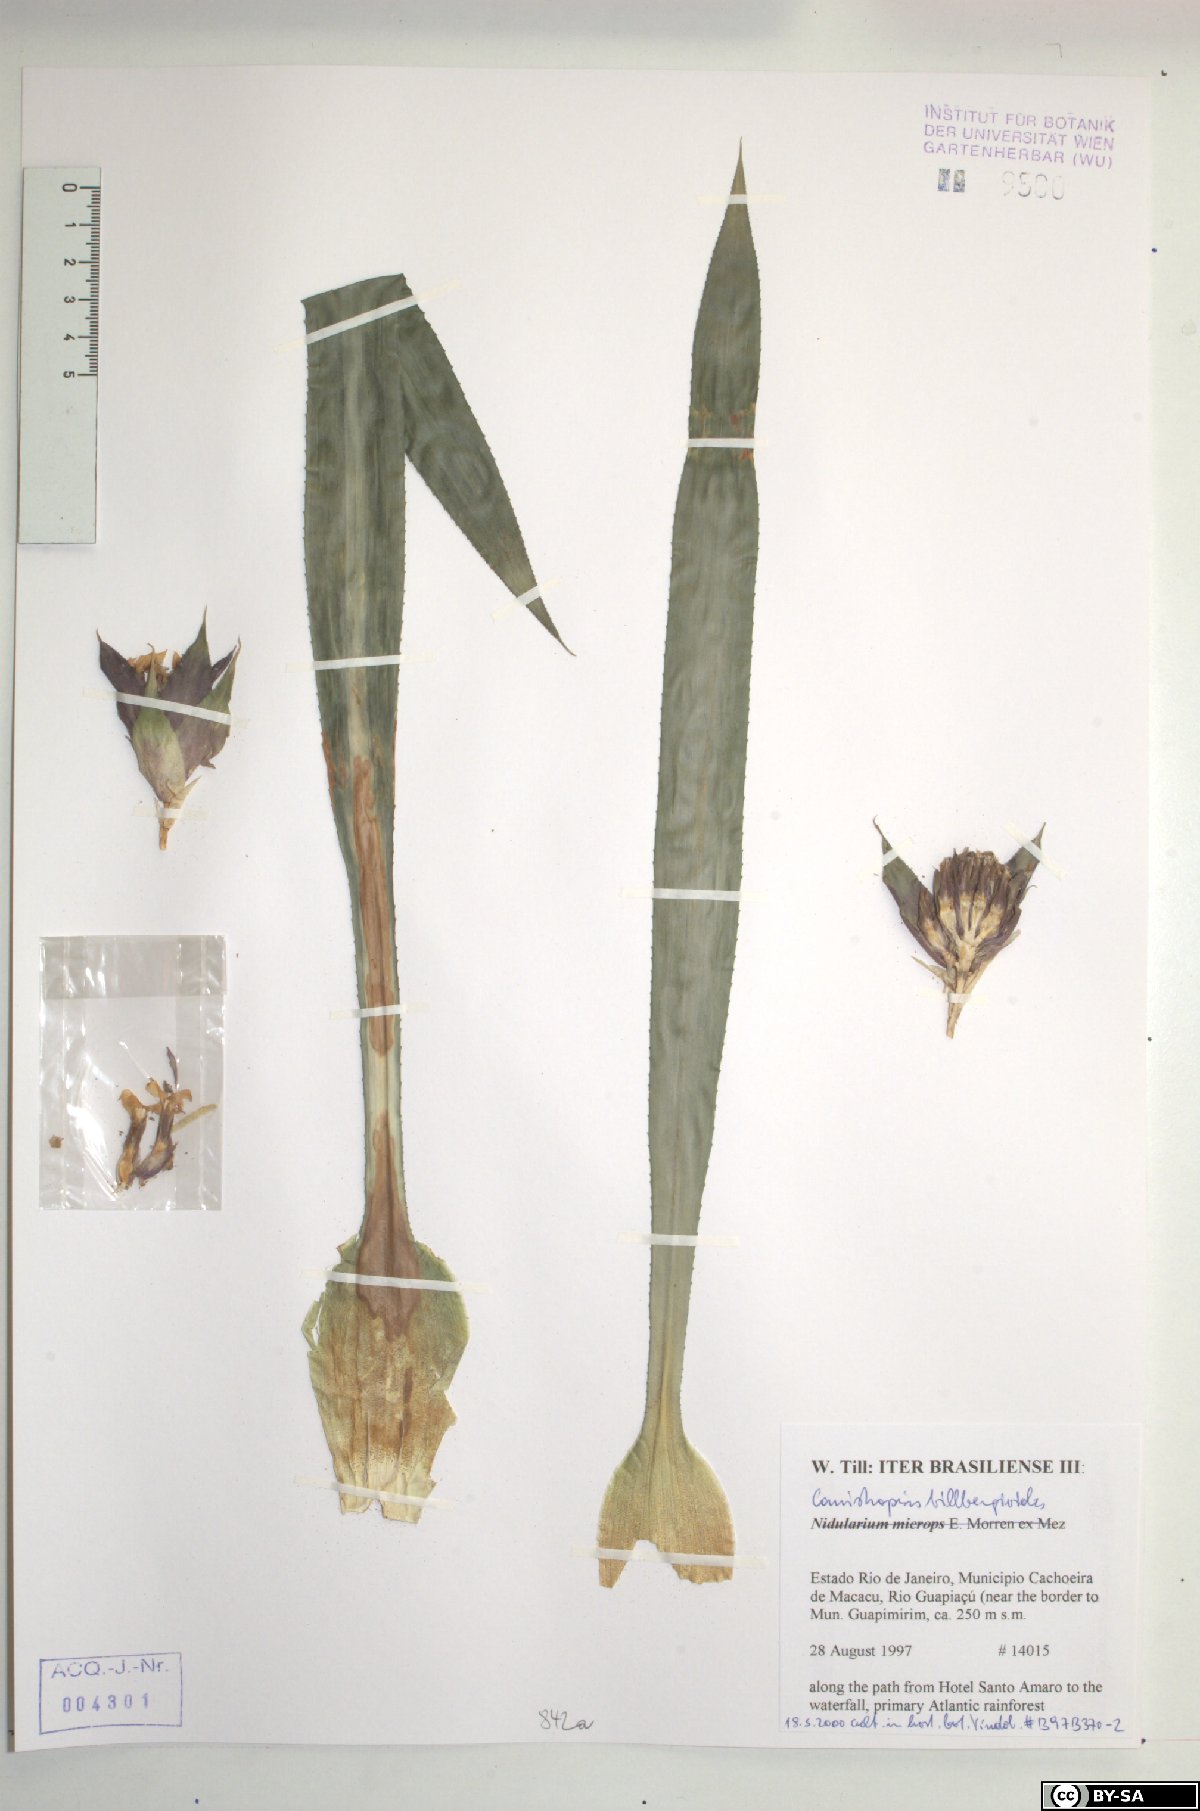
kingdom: Plantae
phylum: Tracheophyta
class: Liliopsida
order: Poales
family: Bromeliaceae
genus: Canistropsis
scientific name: Canistropsis billbergioides
